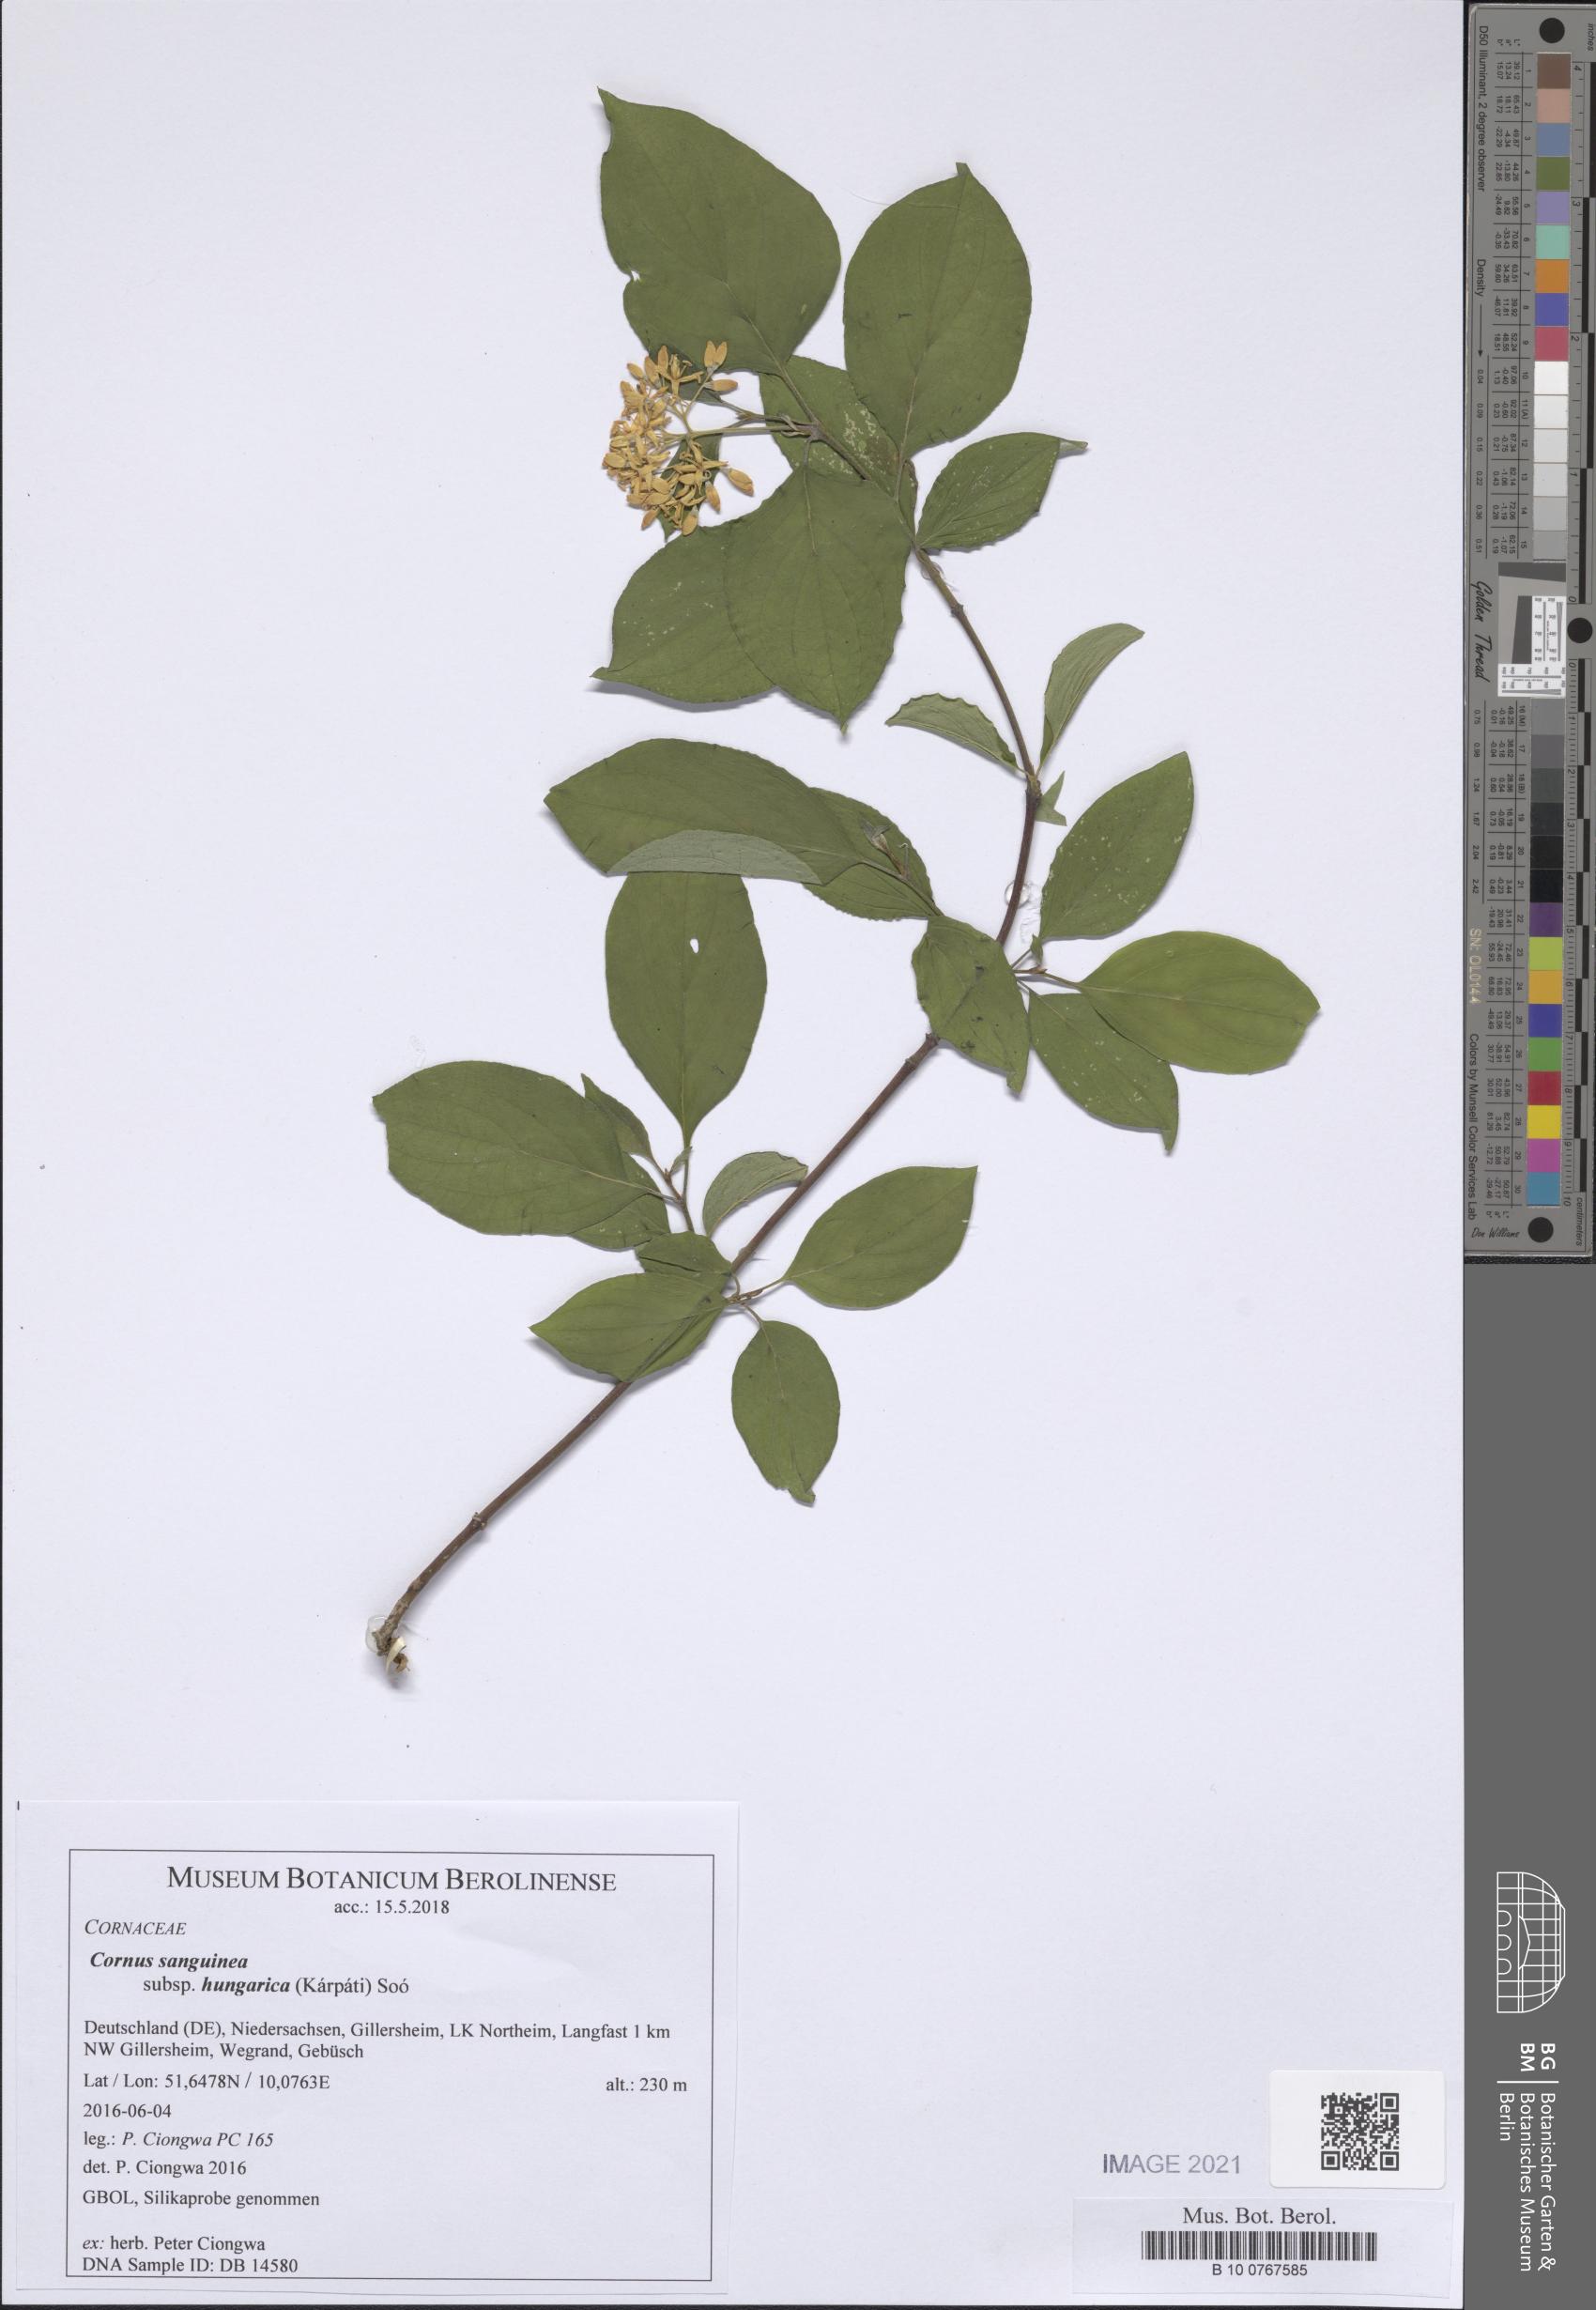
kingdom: Plantae
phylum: Tracheophyta
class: Magnoliopsida
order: Cornales
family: Cornaceae
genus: Cornus
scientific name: Cornus sanguinea
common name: Dogwood
